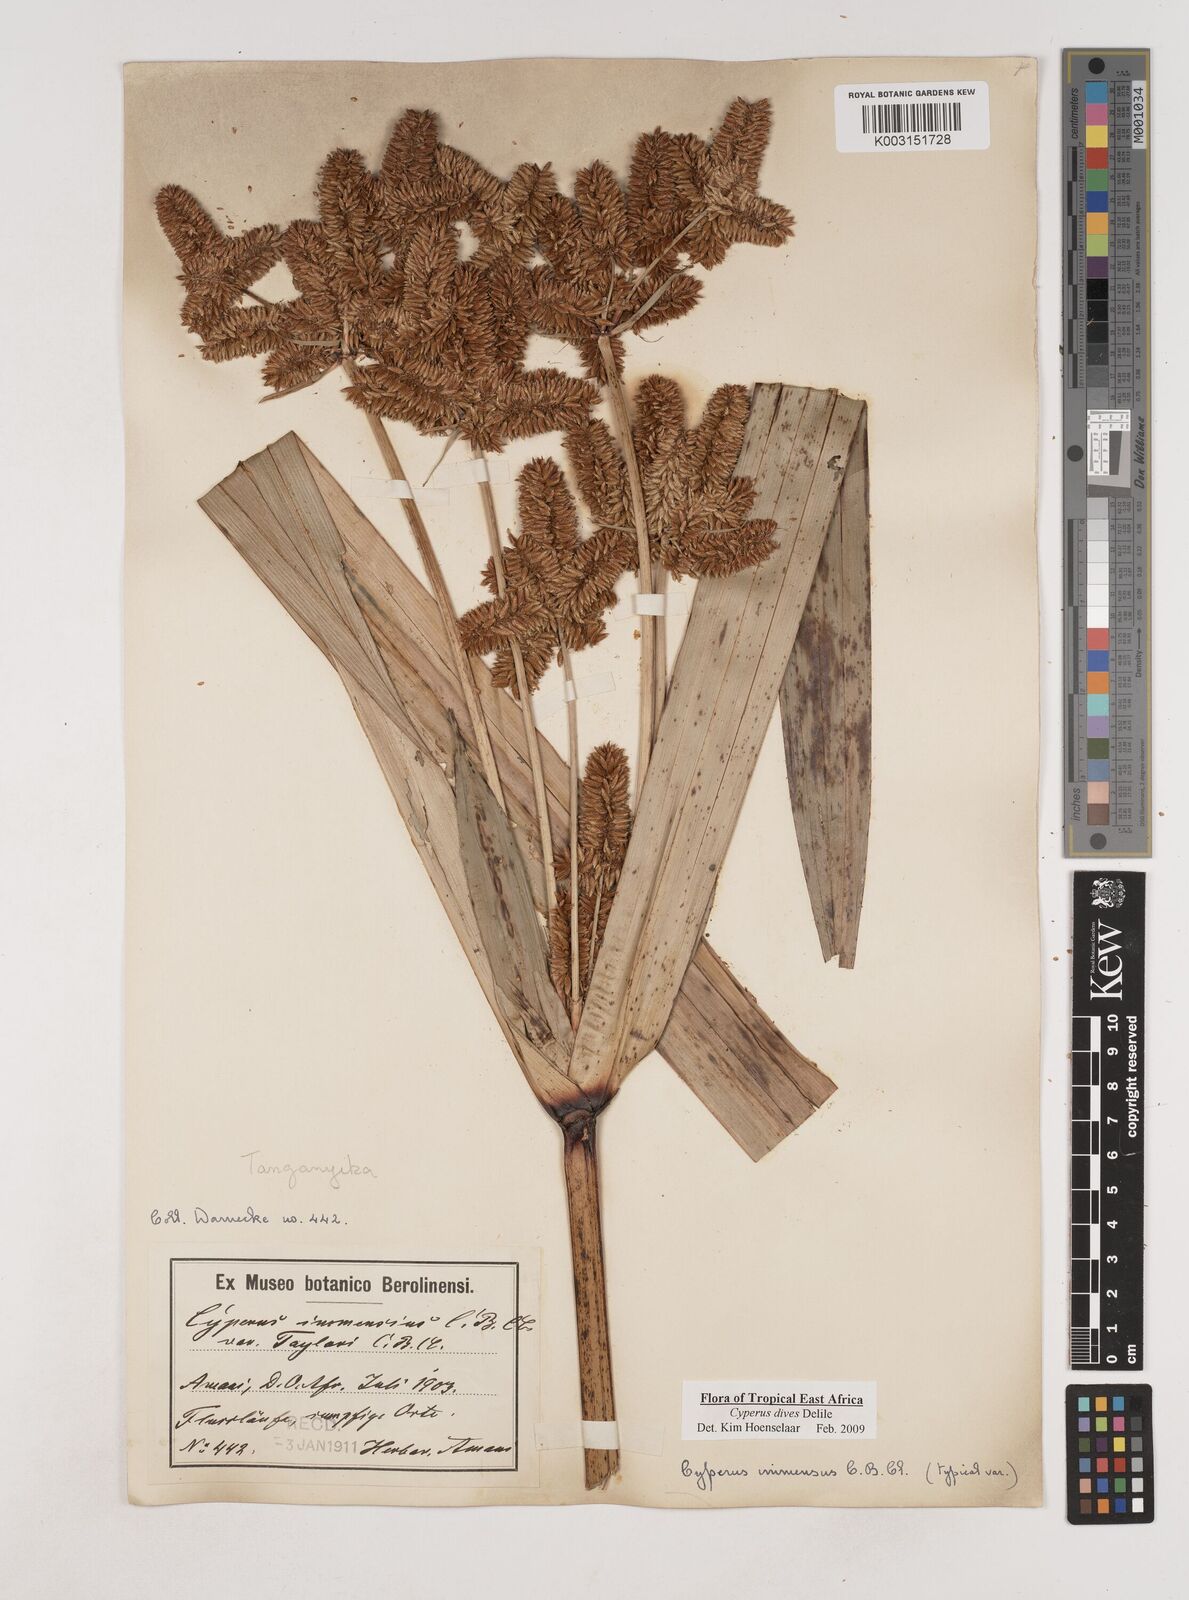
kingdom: Plantae
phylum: Tracheophyta
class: Liliopsida
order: Poales
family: Cyperaceae
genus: Cyperus
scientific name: Cyperus dives
